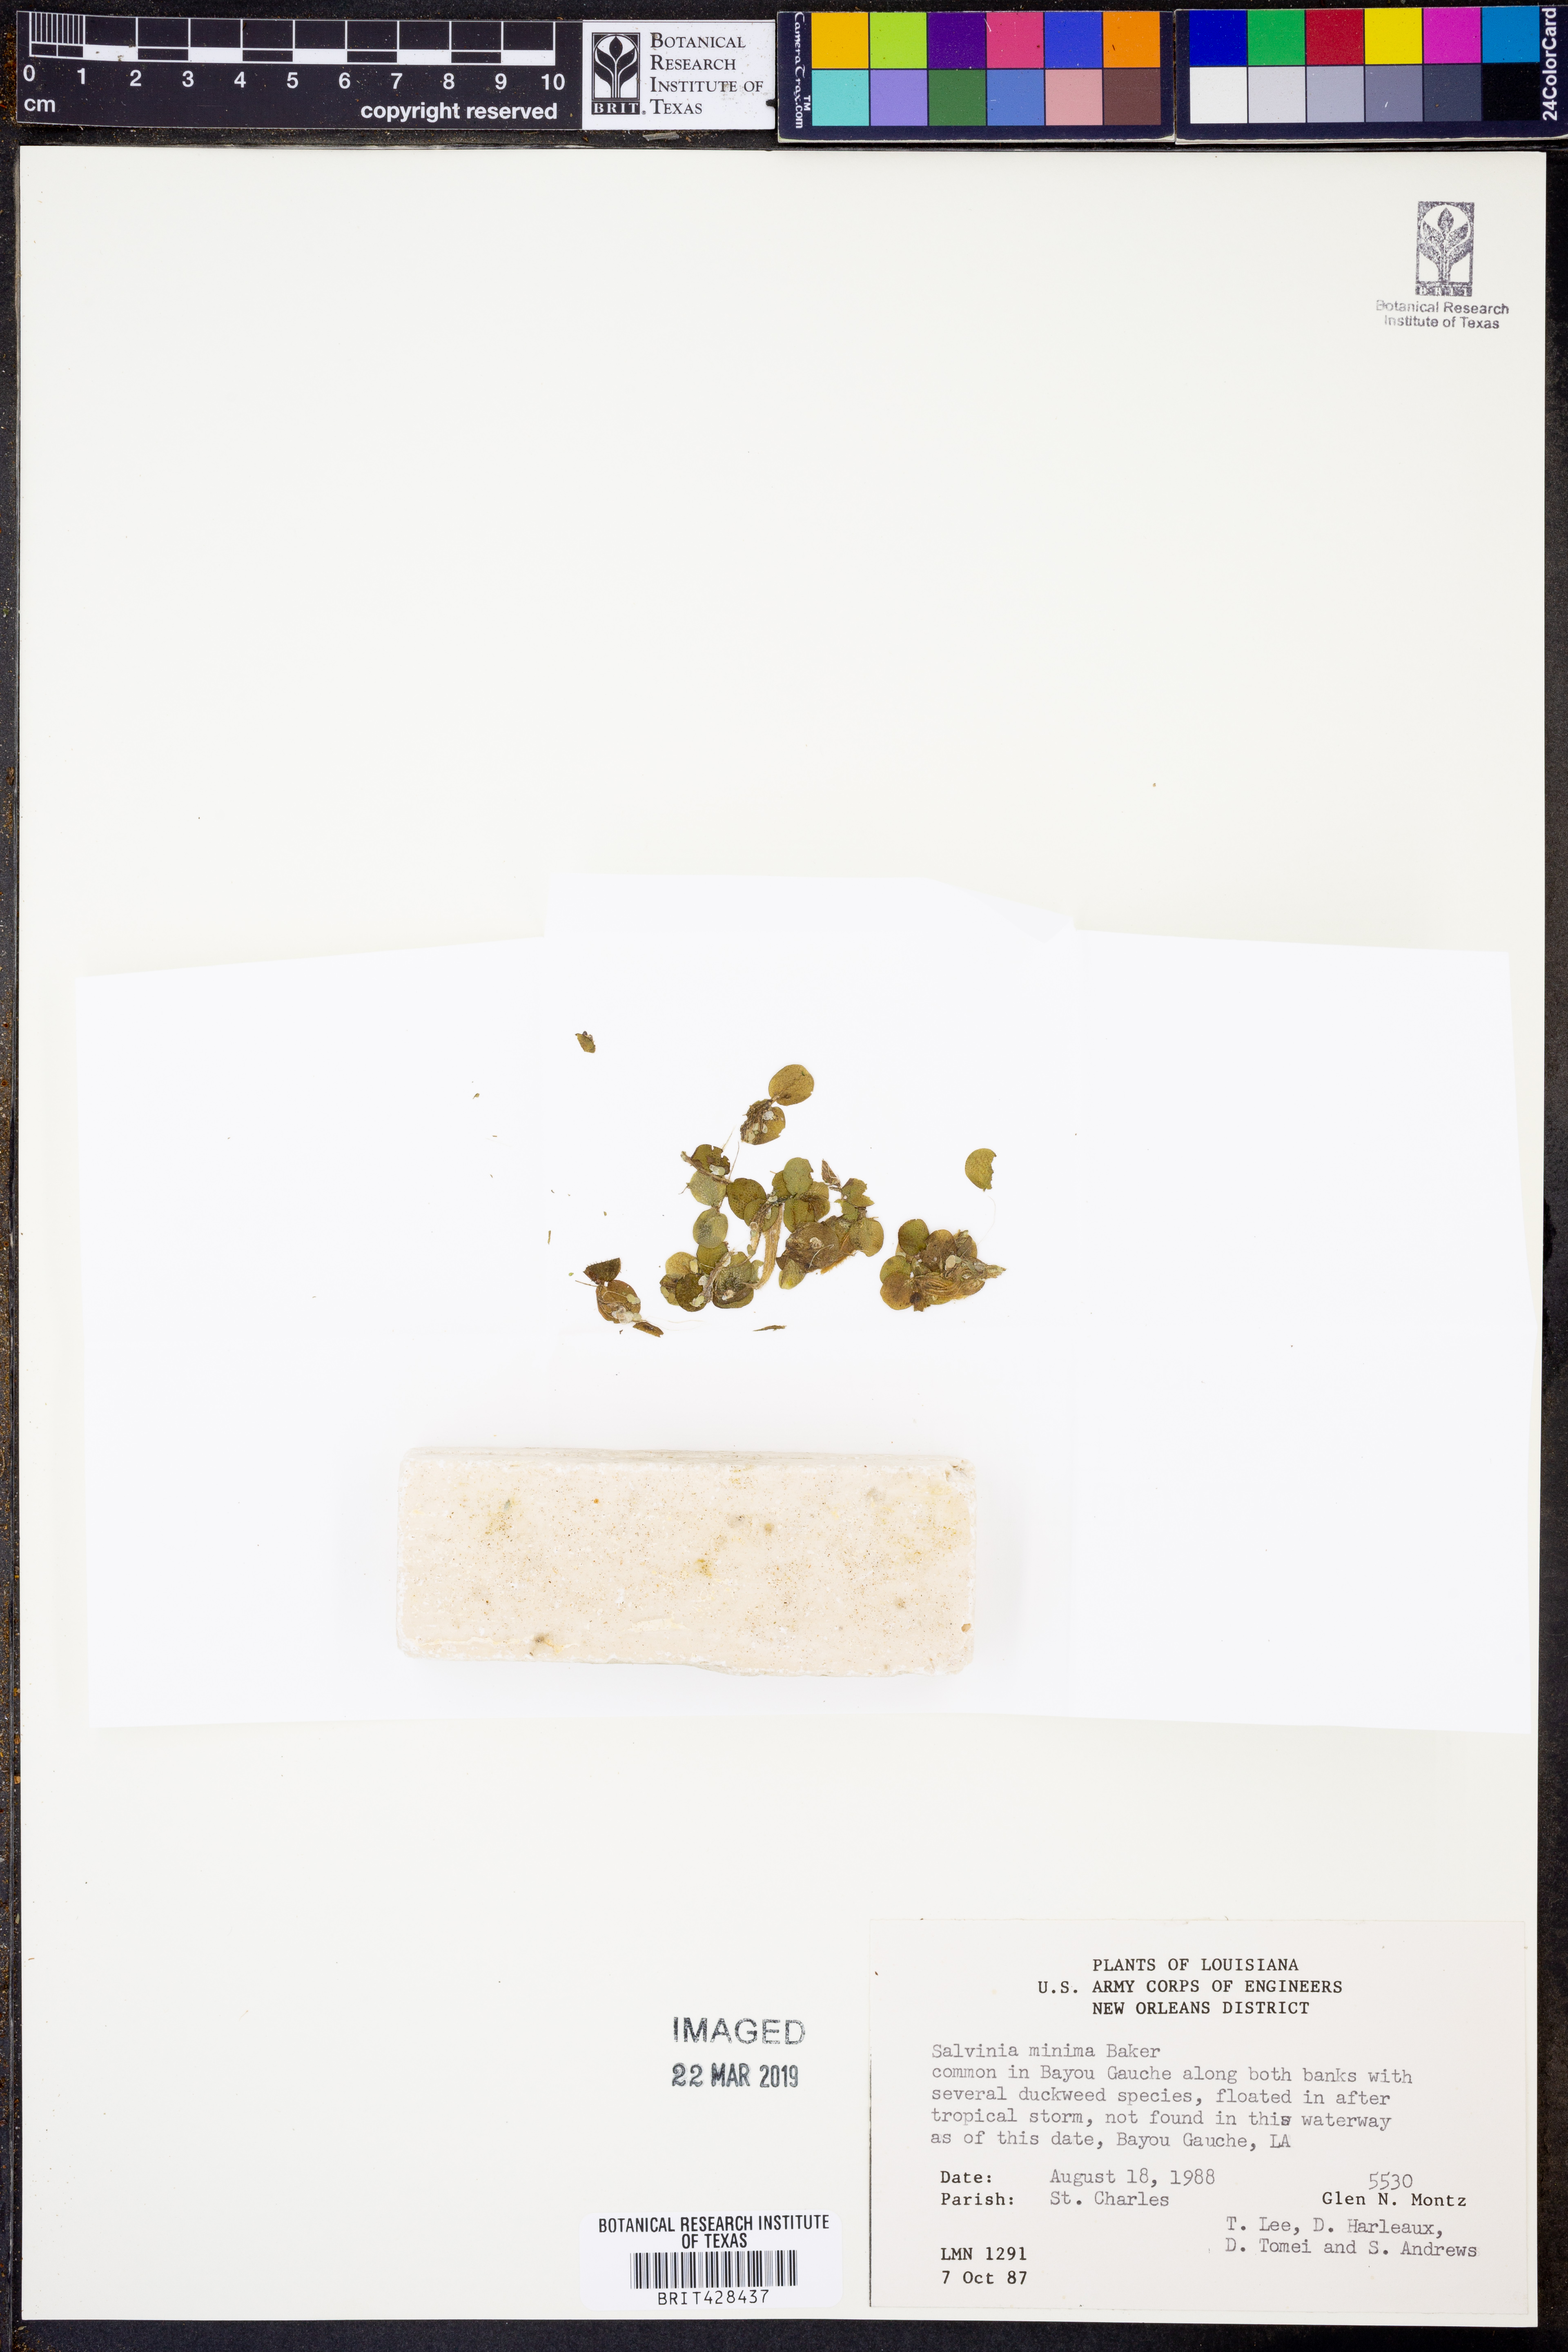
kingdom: Plantae
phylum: Tracheophyta
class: Polypodiopsida
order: Salviniales
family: Salviniaceae
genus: Salvinia
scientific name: Salvinia minima
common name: Water spangles
